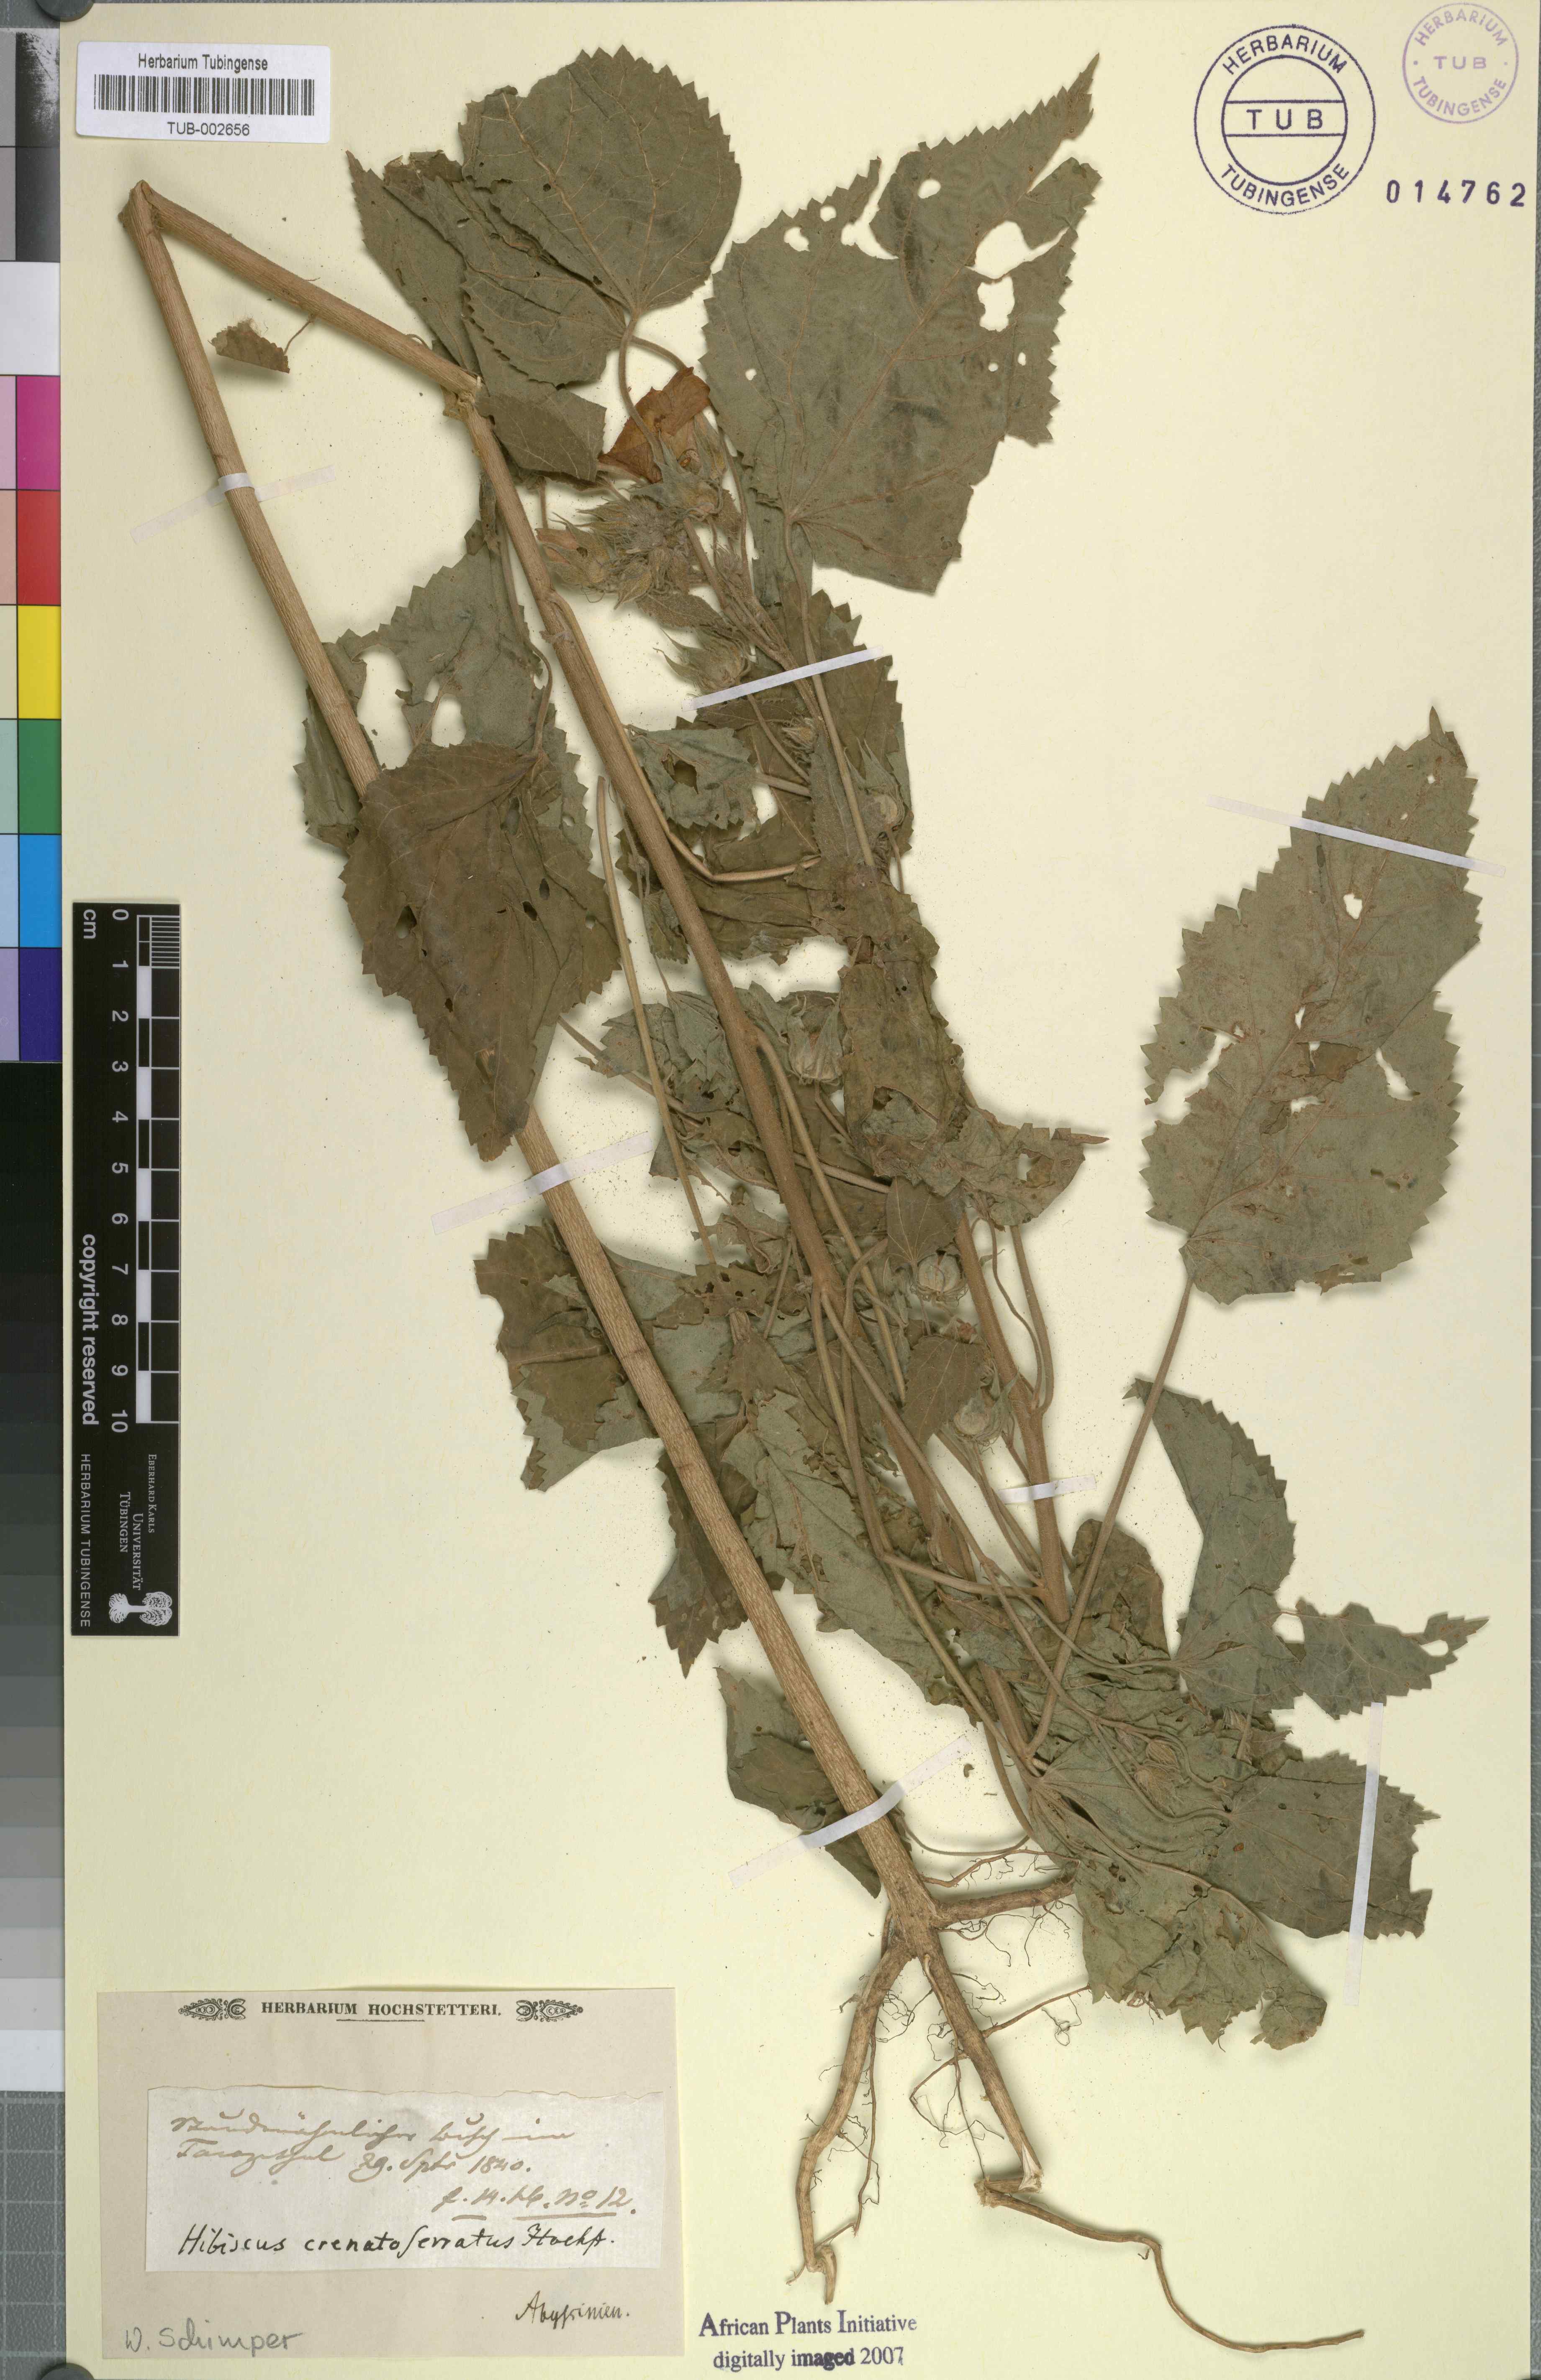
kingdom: Plantae
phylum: Tracheophyta
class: Magnoliopsida
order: Malvales
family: Malvaceae
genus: Hibiscus
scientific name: Hibiscus
